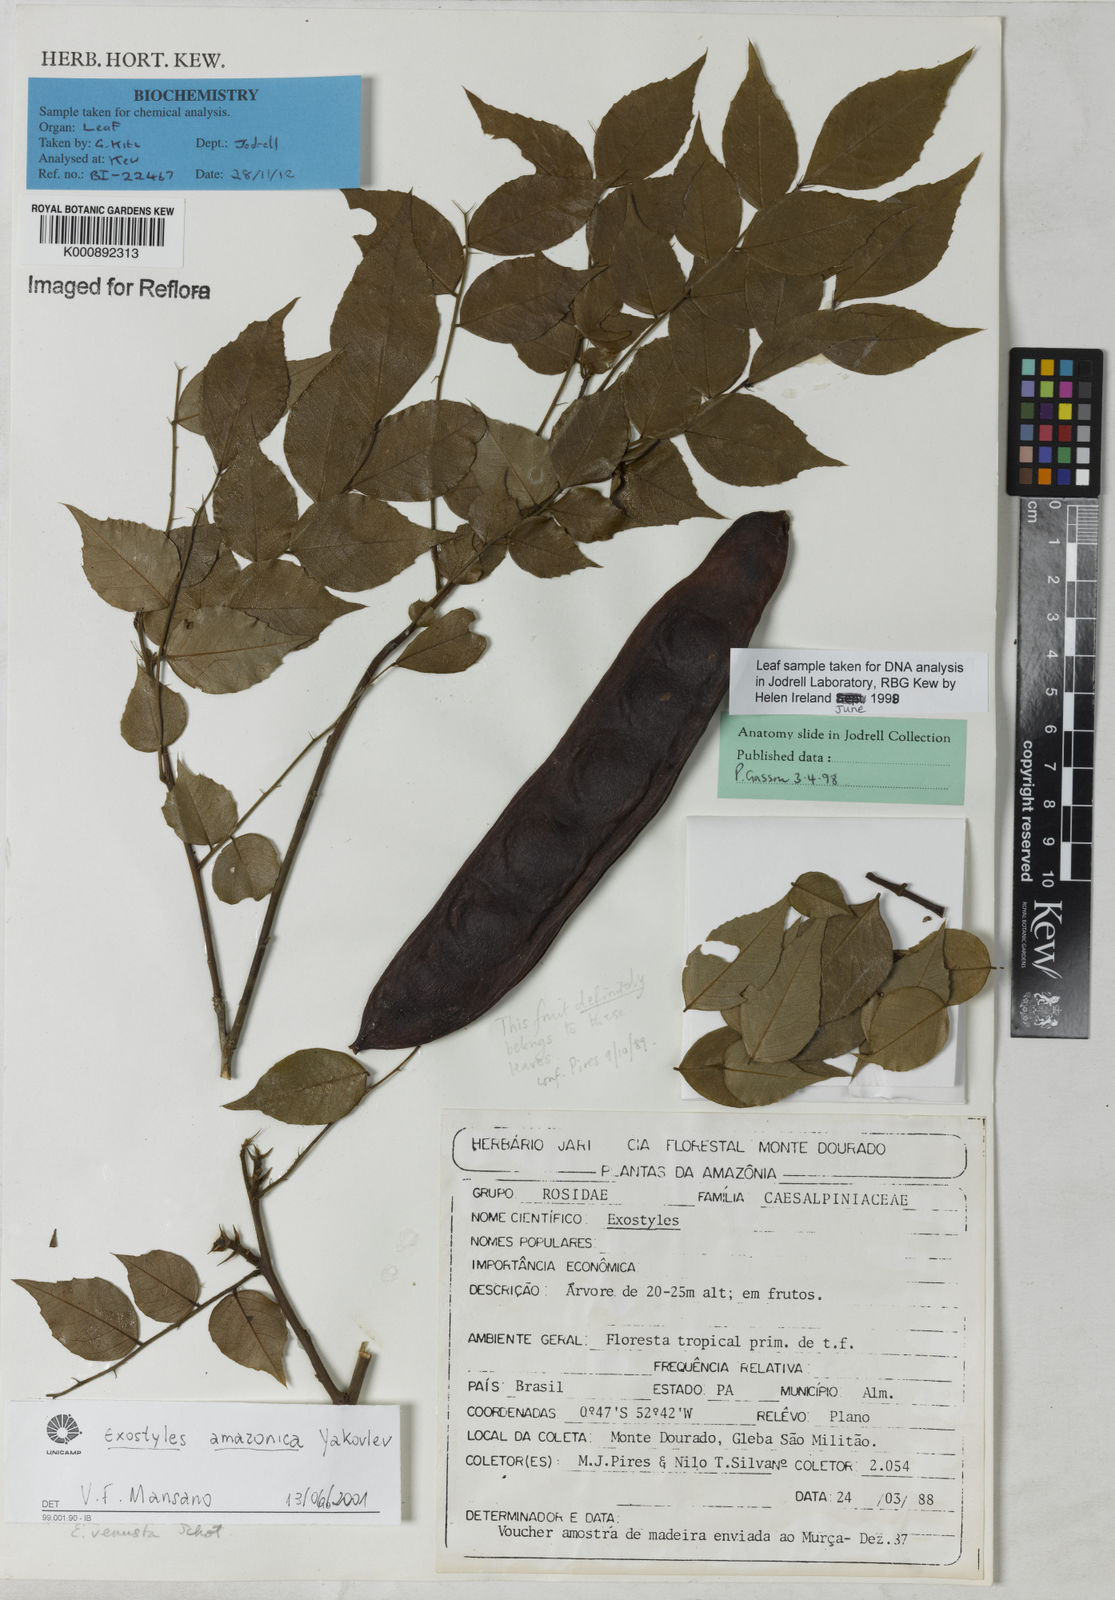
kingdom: Plantae
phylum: Tracheophyta
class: Magnoliopsida
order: Fabales
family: Fabaceae
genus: Exostyles
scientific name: Exostyles amazonica
